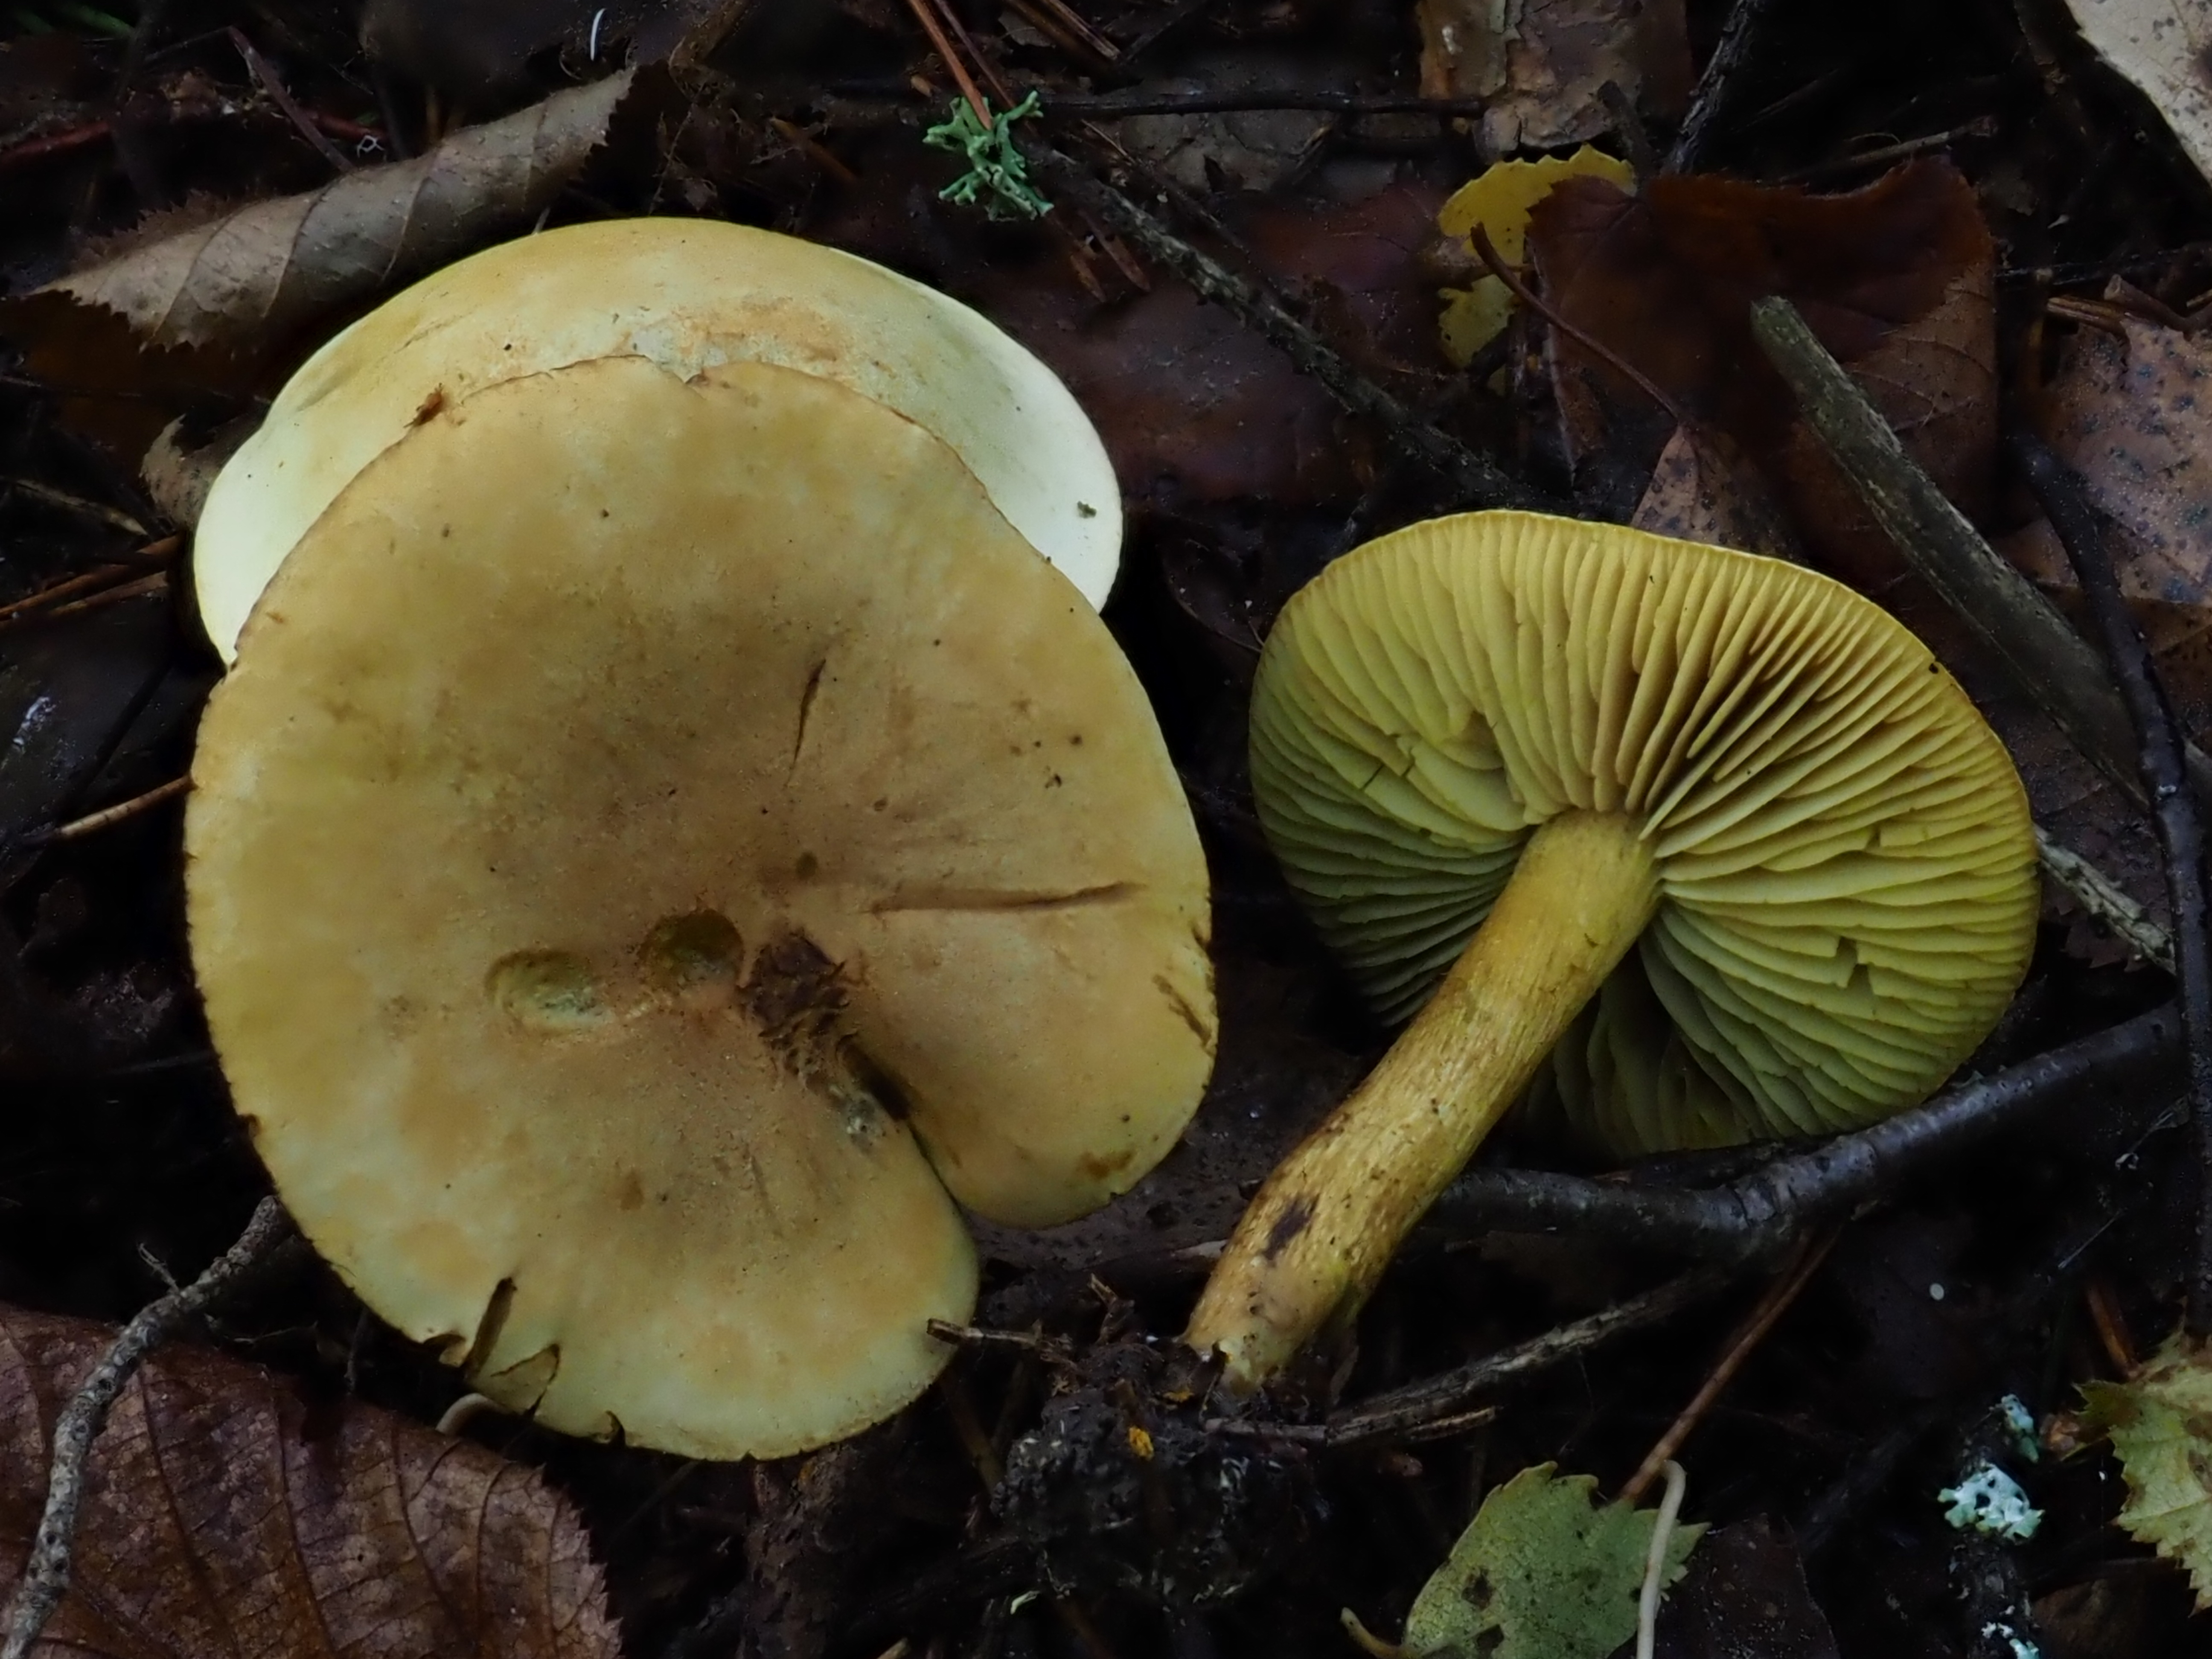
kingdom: Fungi
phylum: Basidiomycota
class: Agaricomycetes
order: Agaricales
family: Tricholomataceae
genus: Tricholoma
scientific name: Tricholoma sulphureum
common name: Stinky knight
